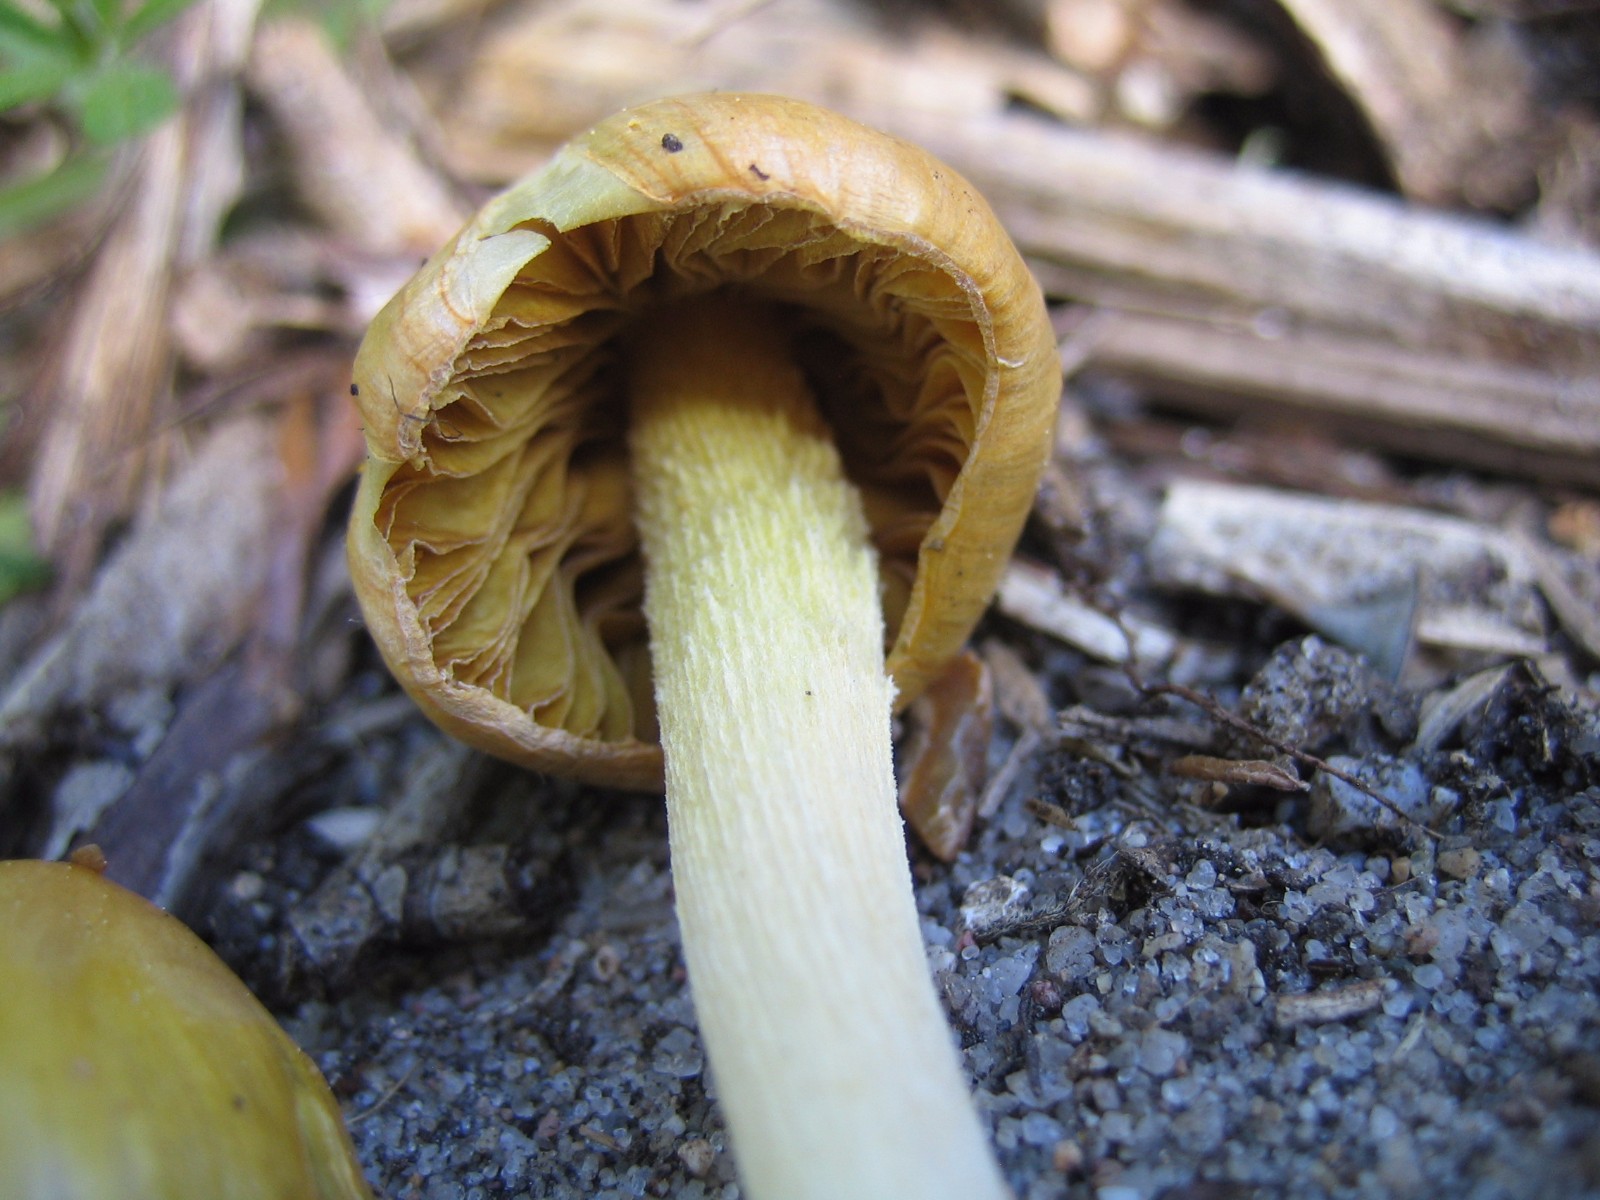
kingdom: Fungi
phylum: Basidiomycota
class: Agaricomycetes
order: Agaricales
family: Bolbitiaceae
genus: Bolbitius
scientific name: Bolbitius titubans
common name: almindelig gulhat
